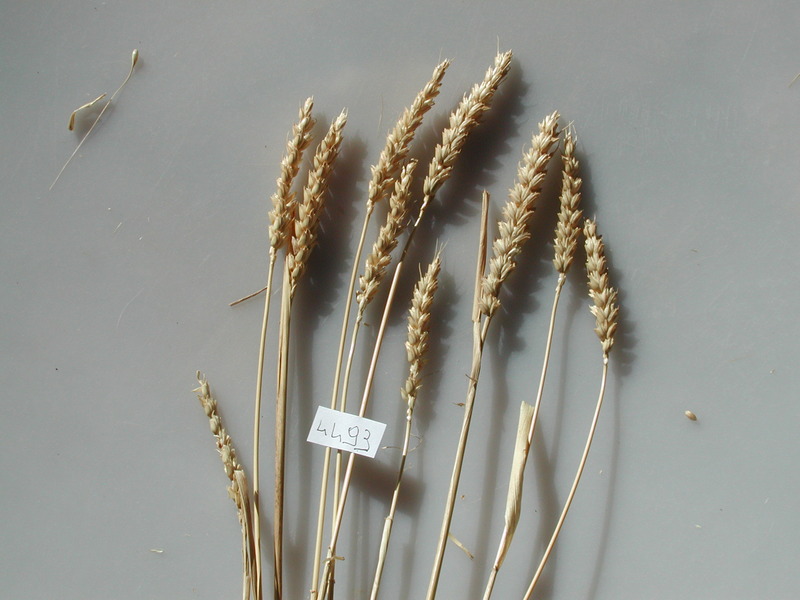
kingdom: Plantae
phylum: Tracheophyta
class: Liliopsida
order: Poales
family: Poaceae
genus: Triticum
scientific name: Triticum aestivum
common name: Wheat
